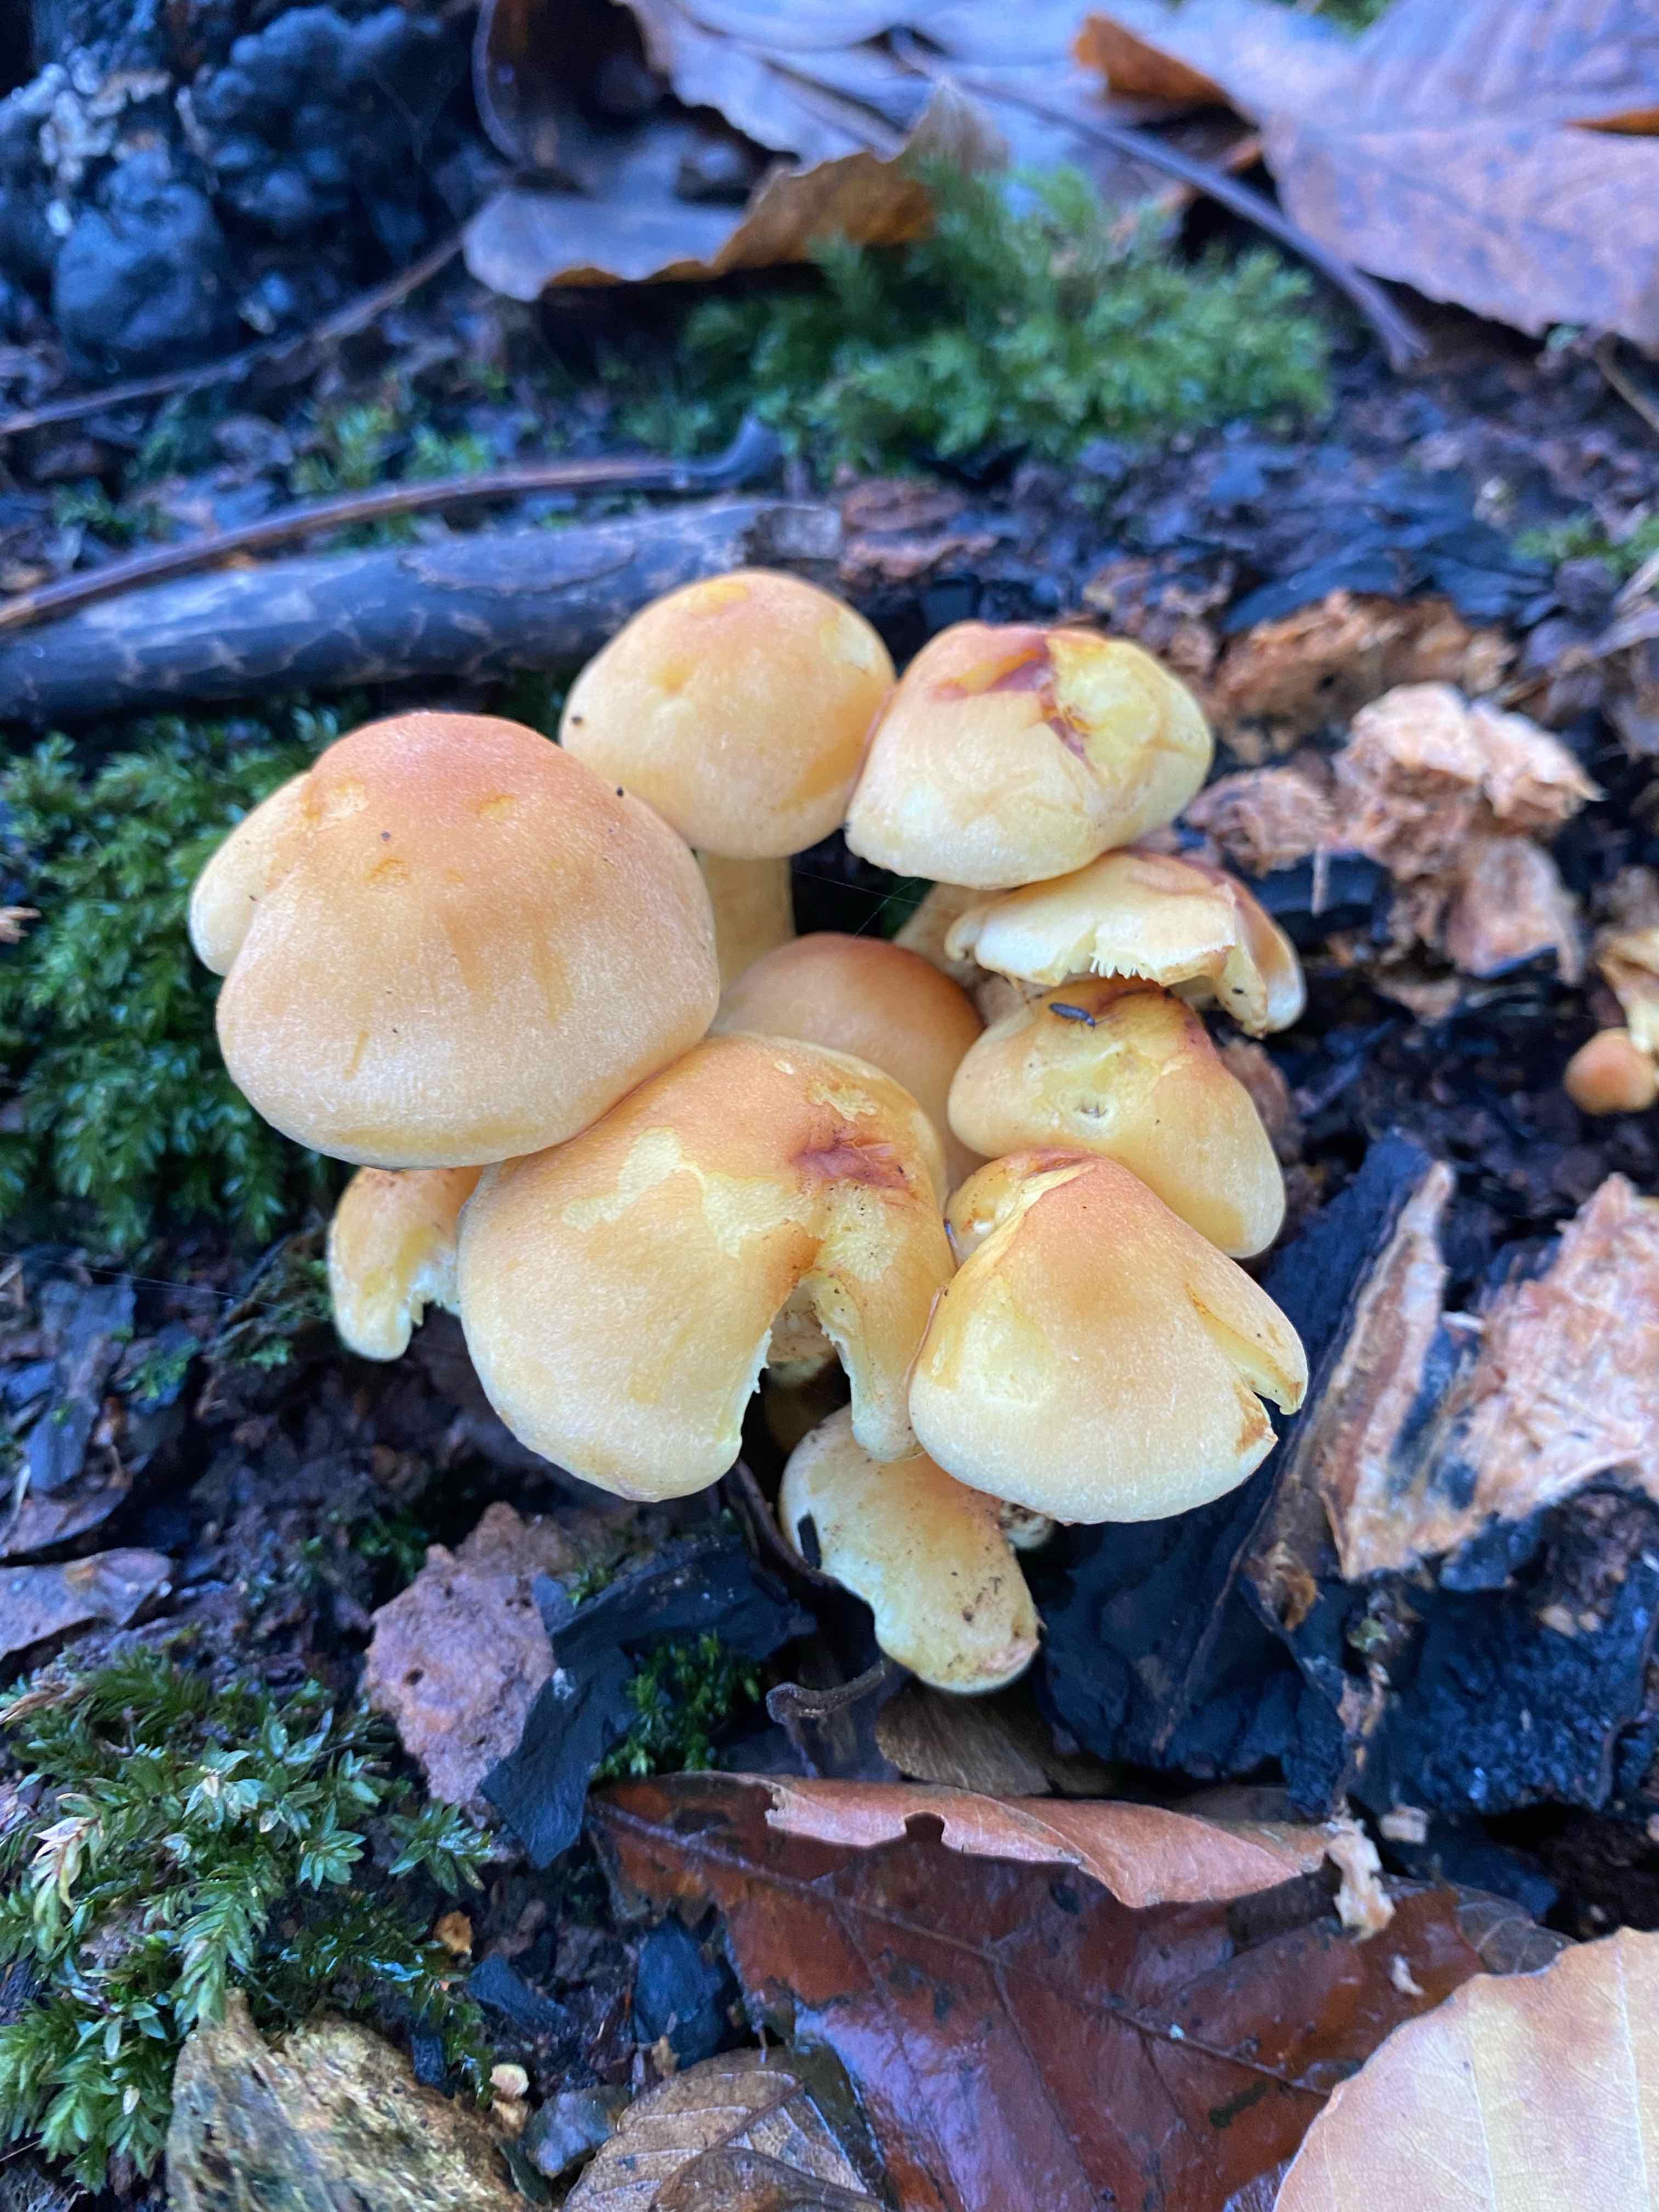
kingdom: Fungi
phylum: Basidiomycota
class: Agaricomycetes
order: Agaricales
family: Strophariaceae
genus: Hypholoma
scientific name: Hypholoma fasciculare
